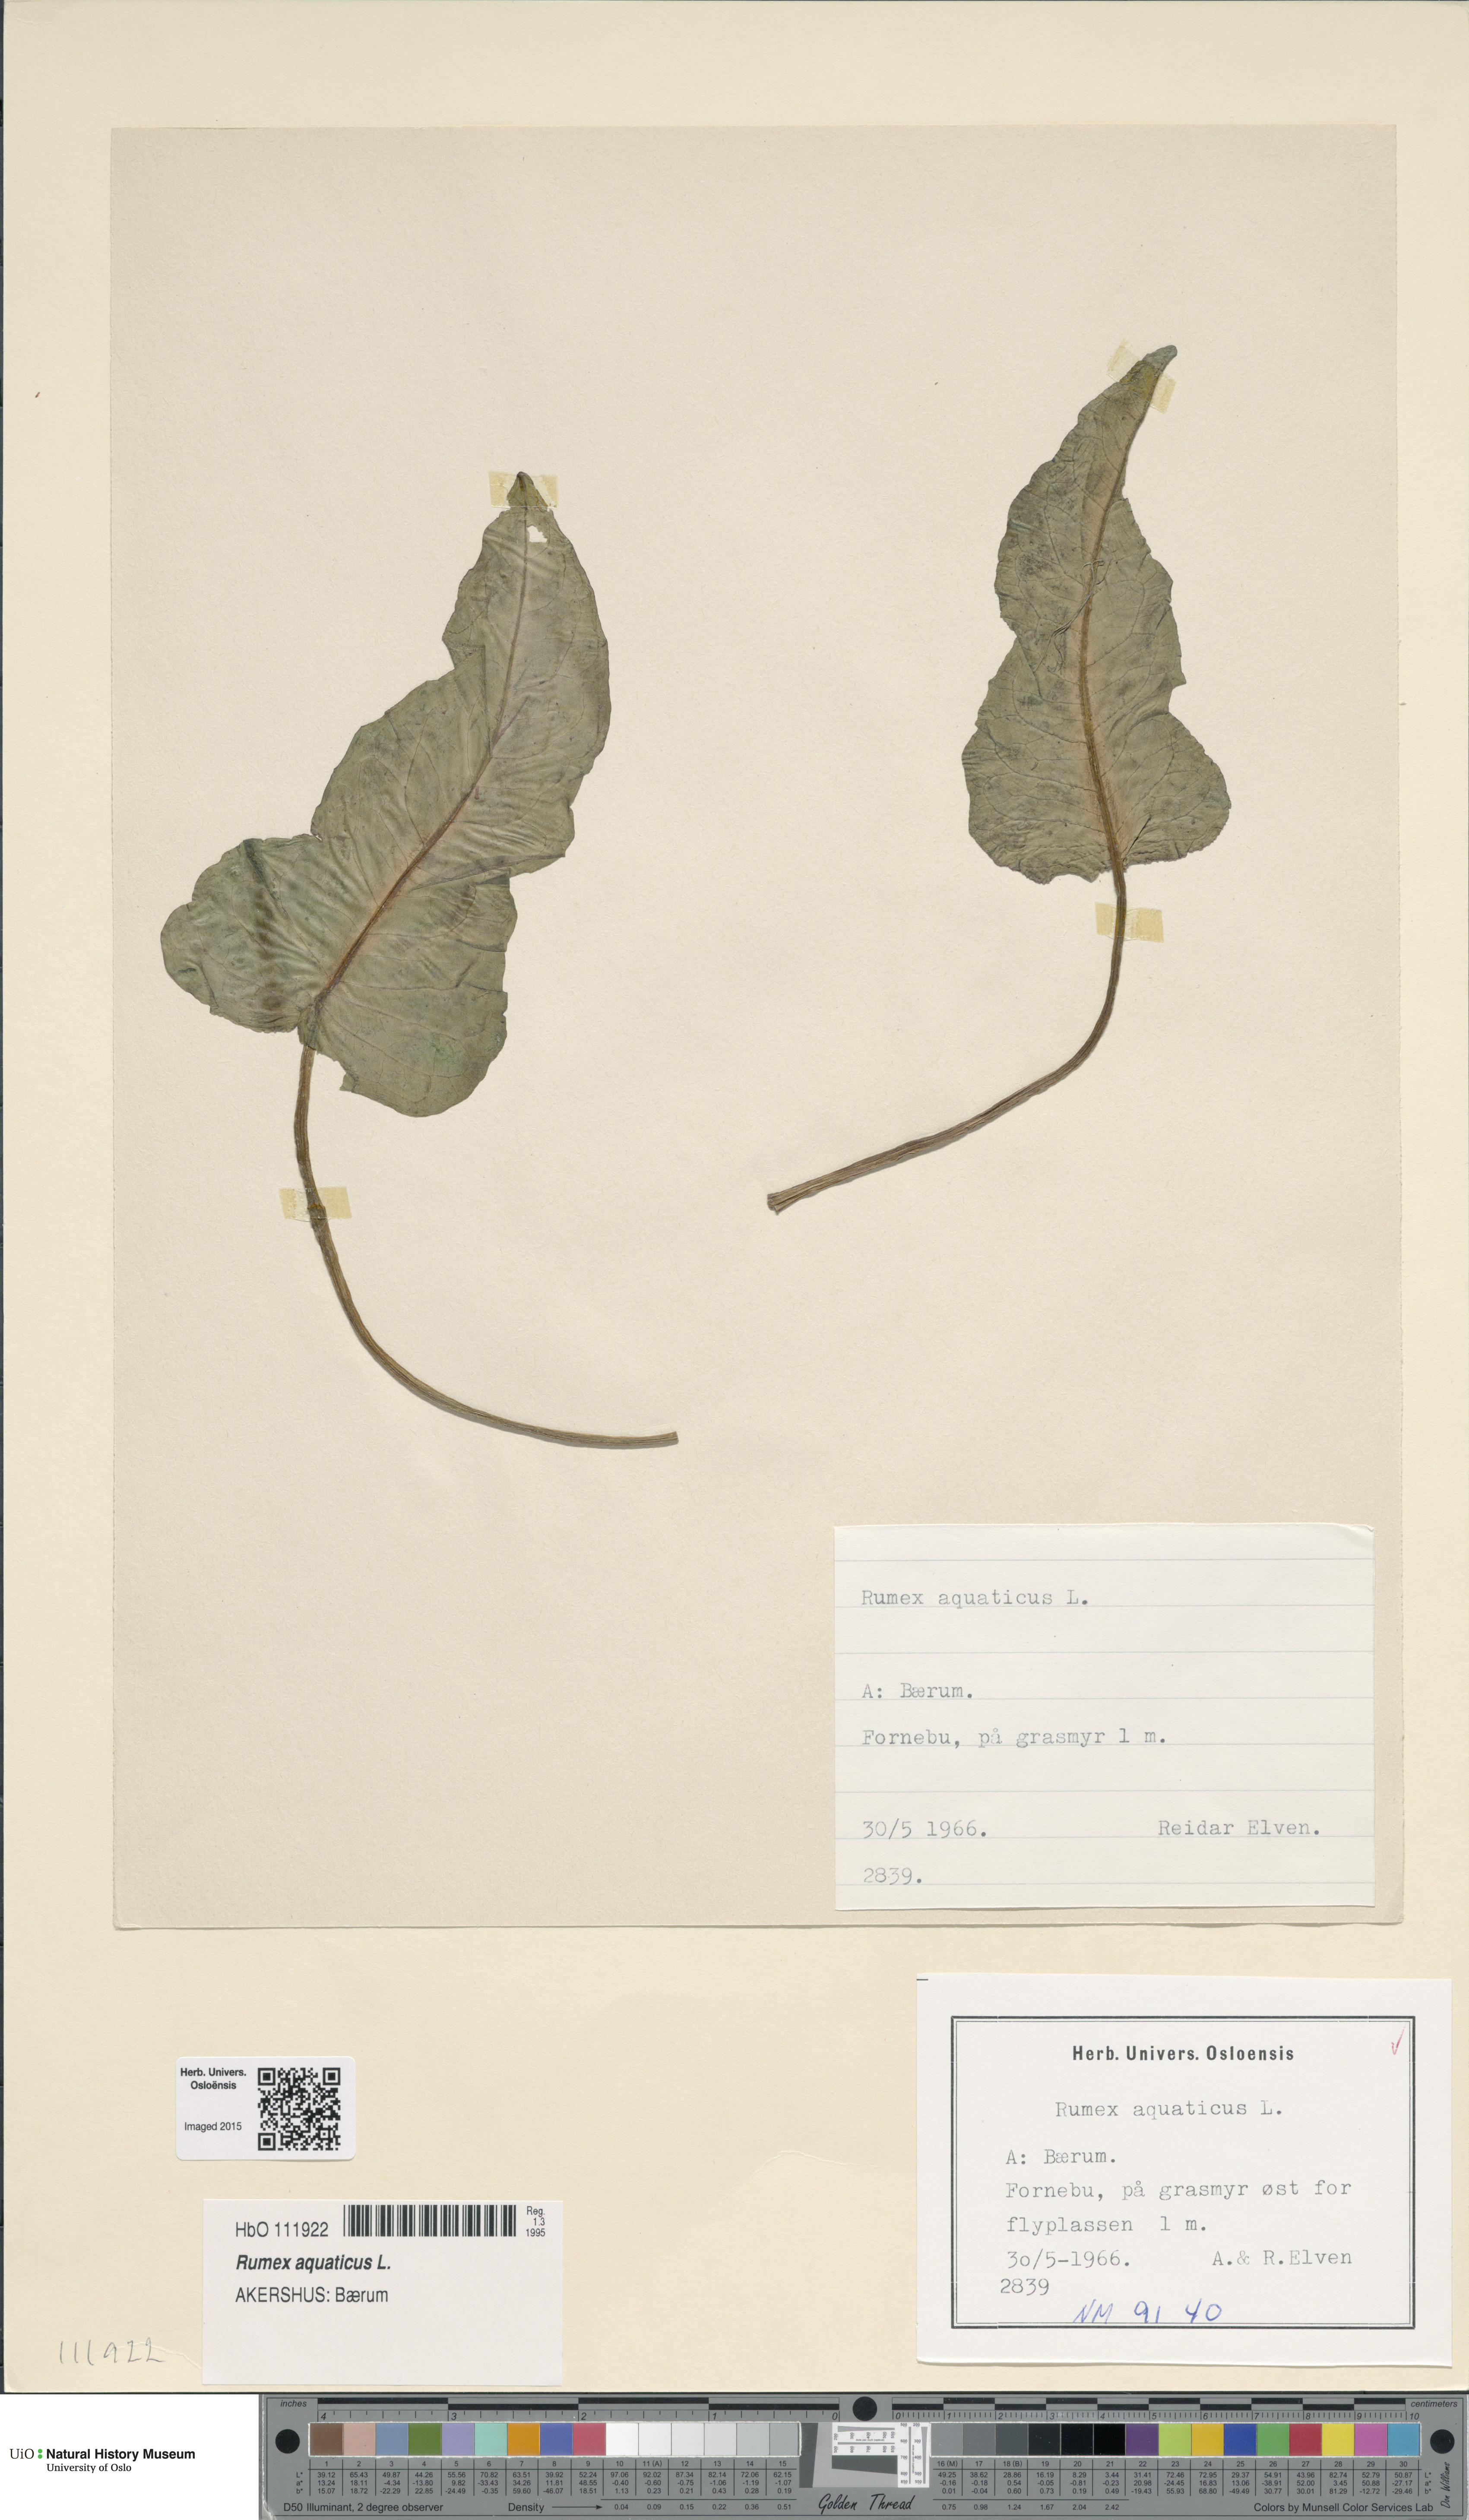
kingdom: Plantae
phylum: Tracheophyta
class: Magnoliopsida
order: Caryophyllales
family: Polygonaceae
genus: Rumex
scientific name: Rumex aquaticus
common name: Scottish dock
